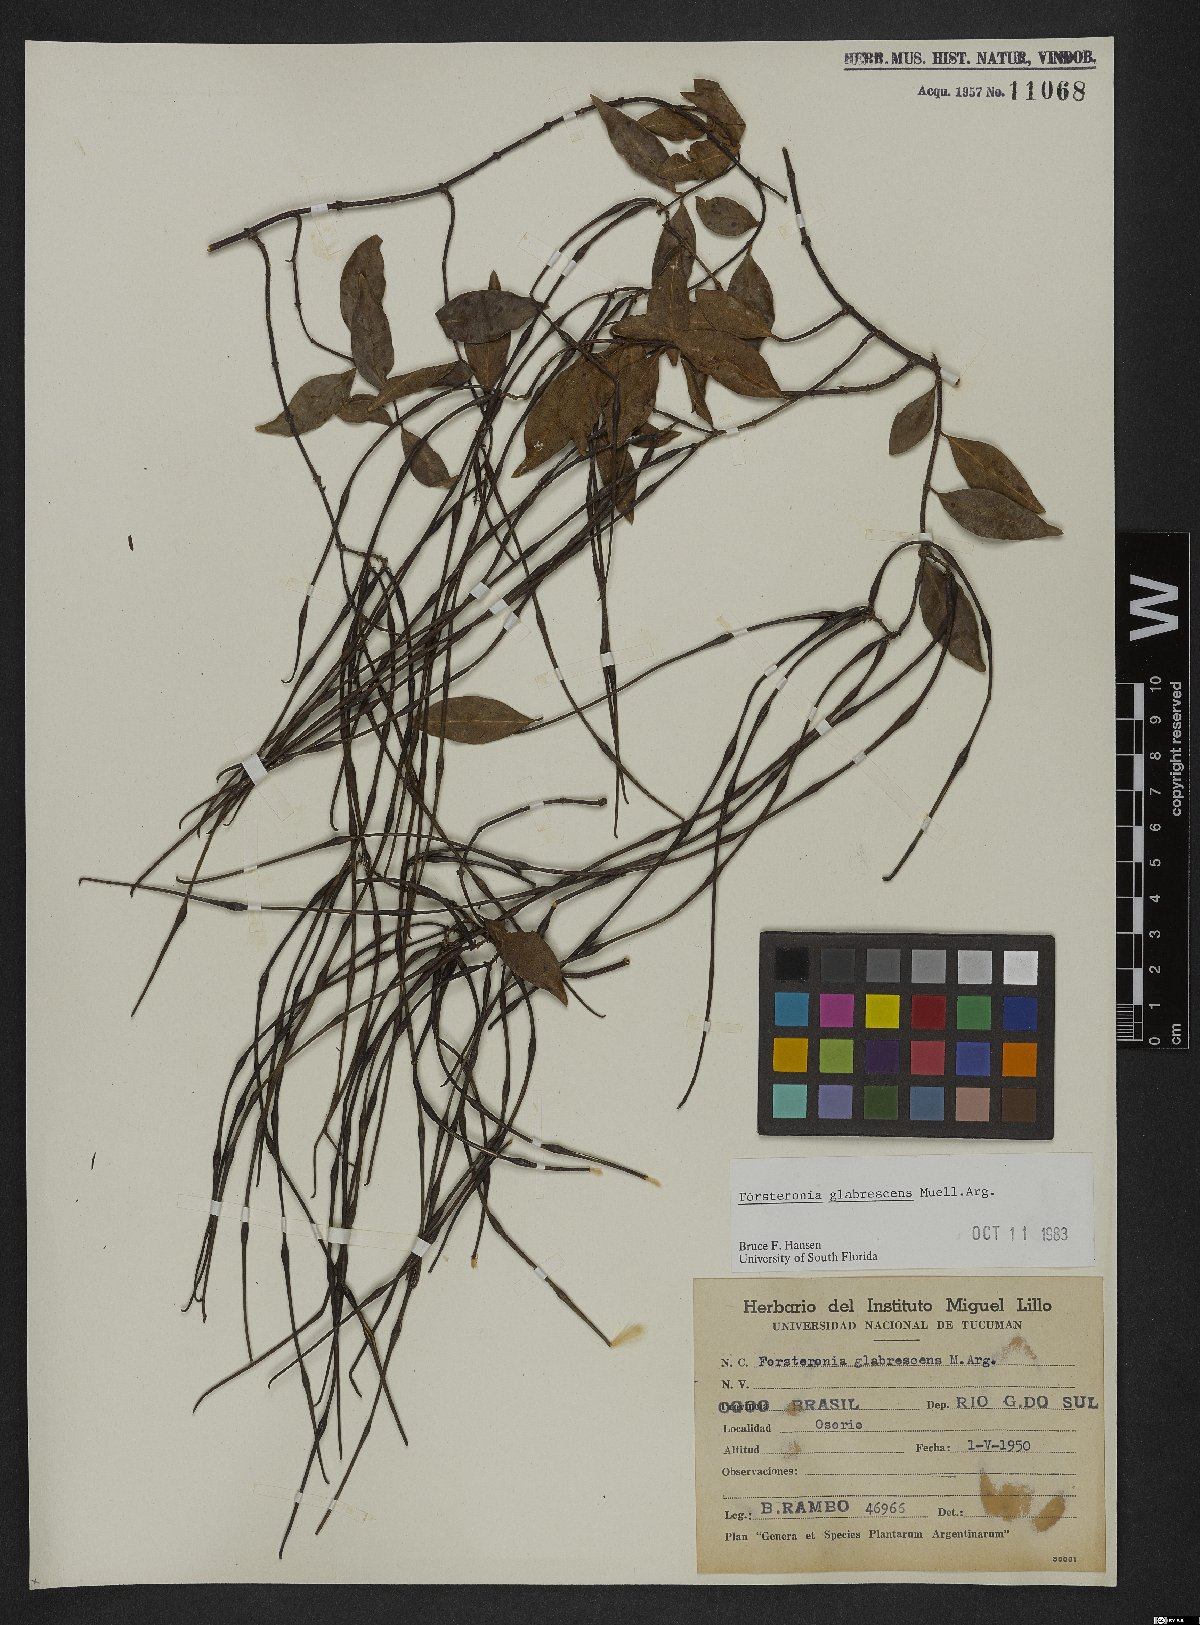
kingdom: Plantae
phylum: Tracheophyta
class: Magnoliopsida
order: Gentianales
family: Apocynaceae
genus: Forsteronia
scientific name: Forsteronia glabrescens
